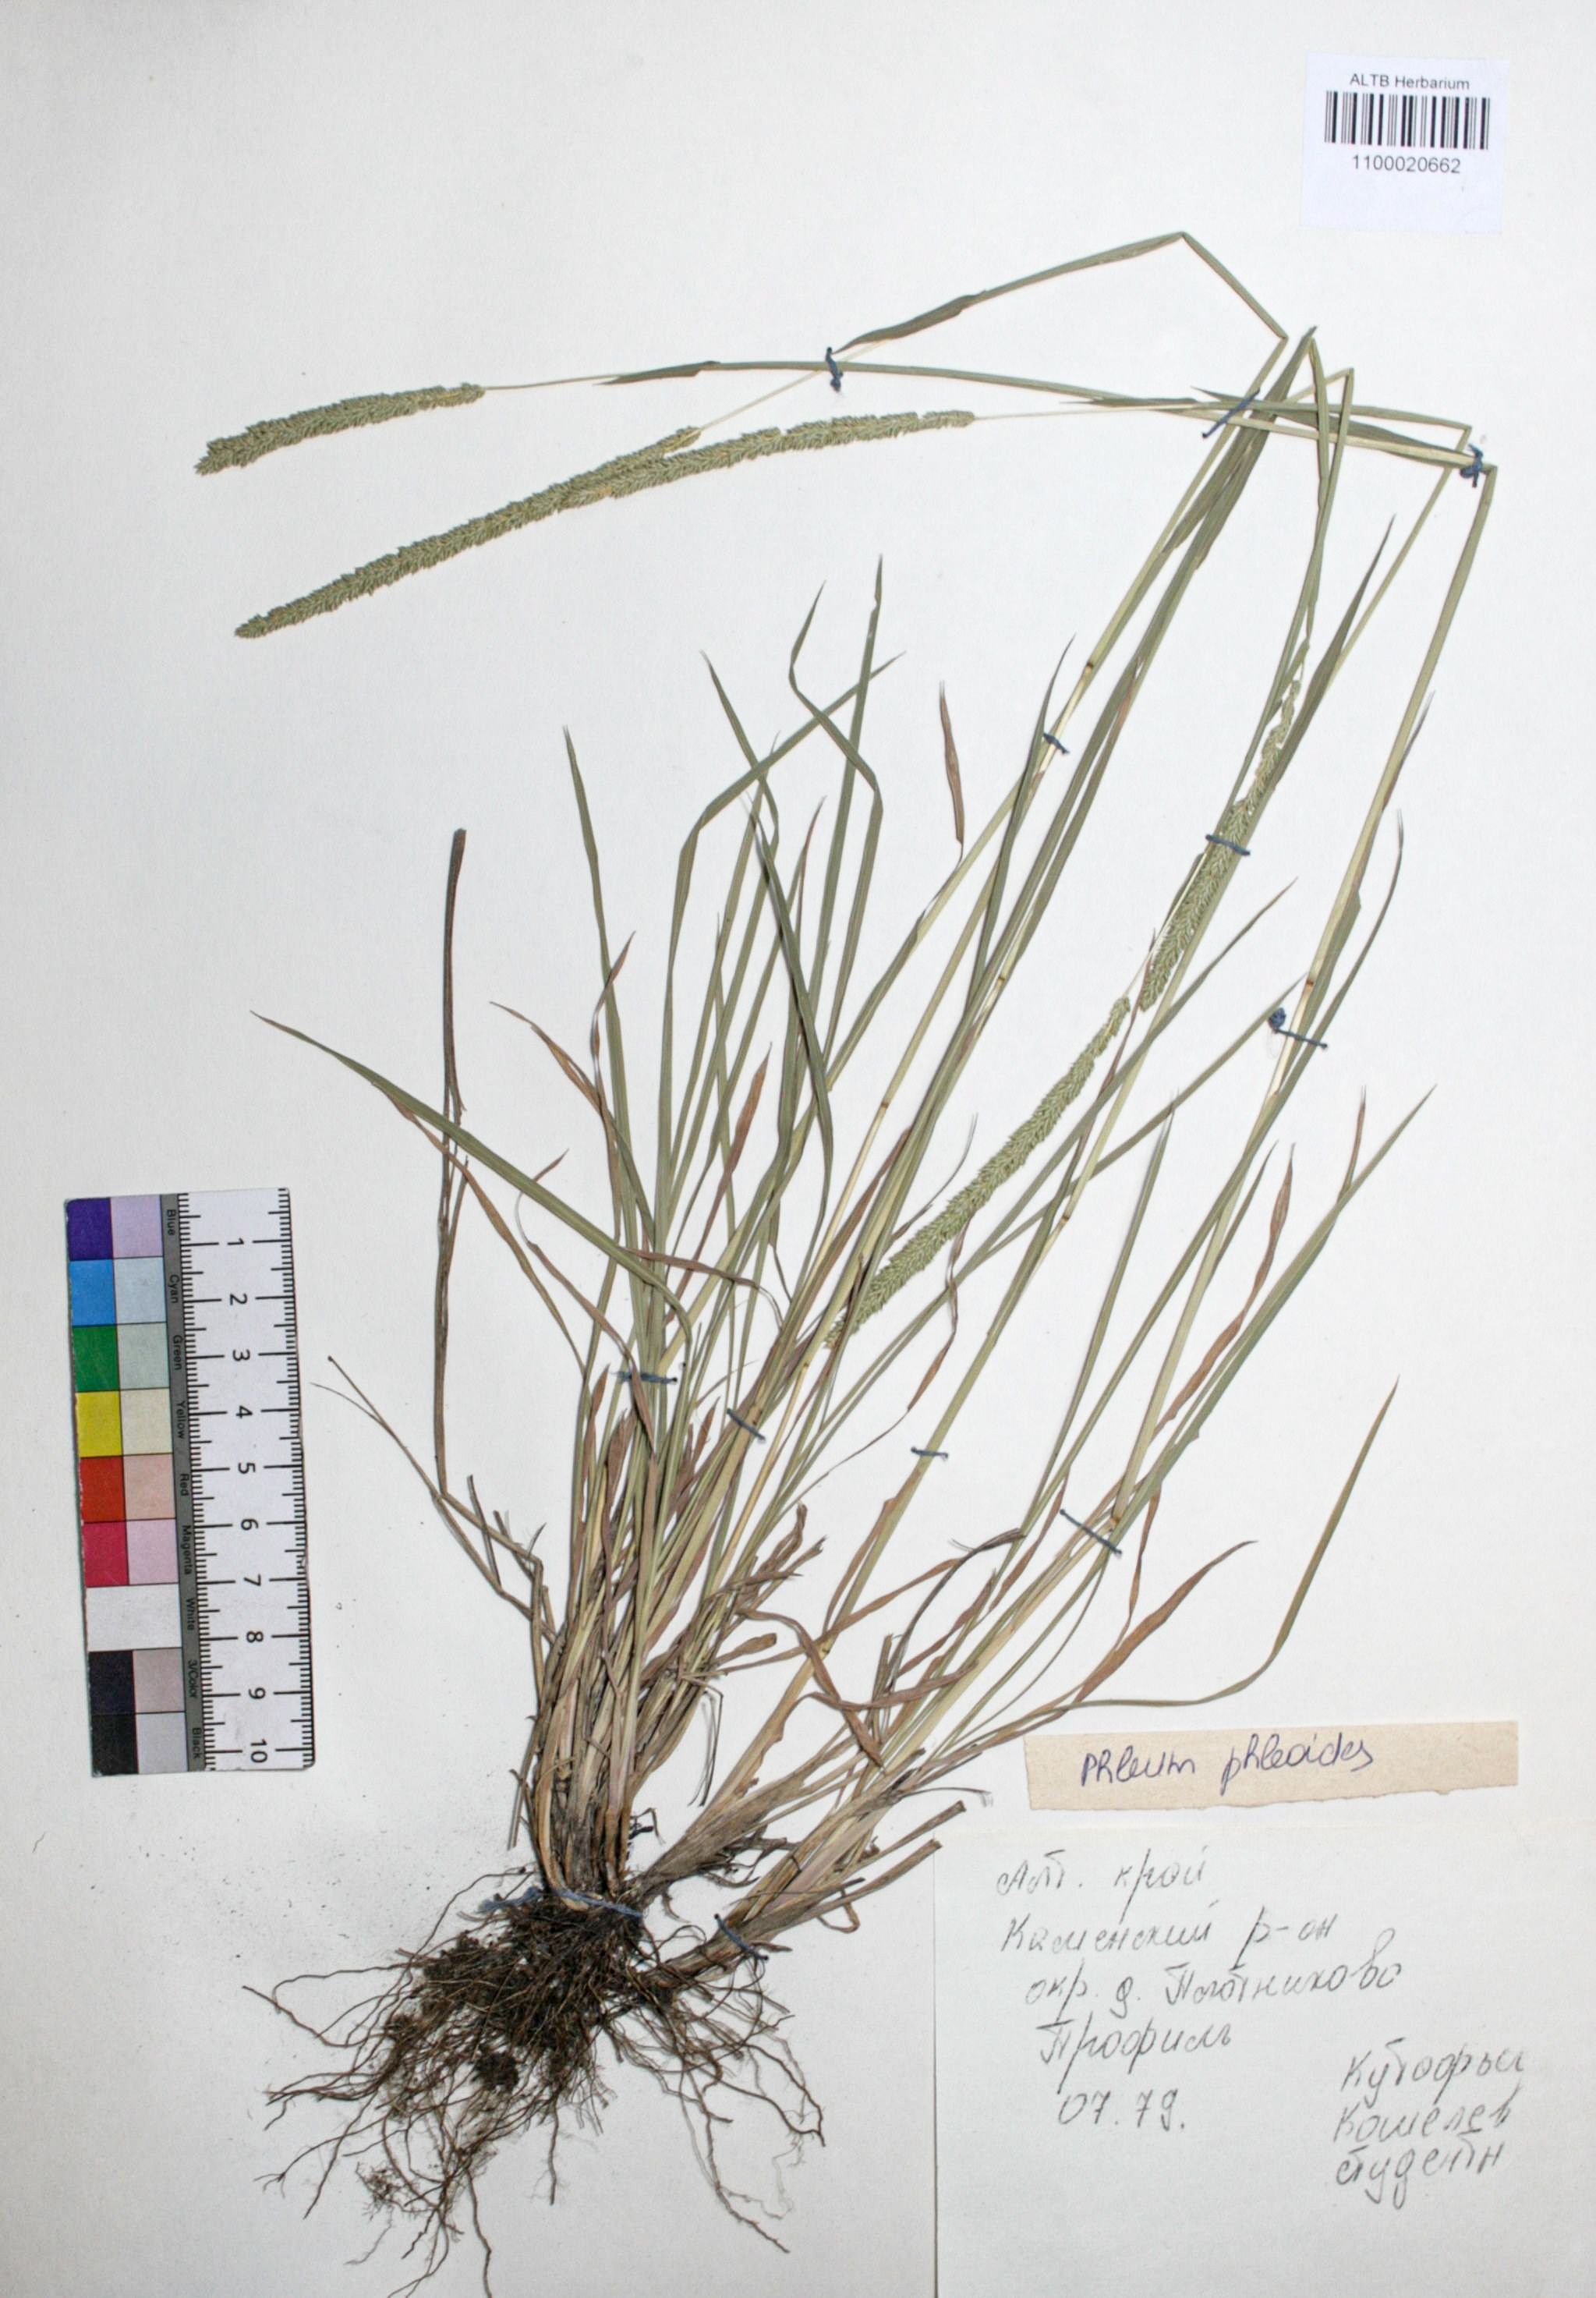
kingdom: Plantae
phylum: Tracheophyta
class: Liliopsida
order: Poales
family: Poaceae
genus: Phleum
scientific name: Phleum phleoides
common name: Purple-stem cat's-tail
